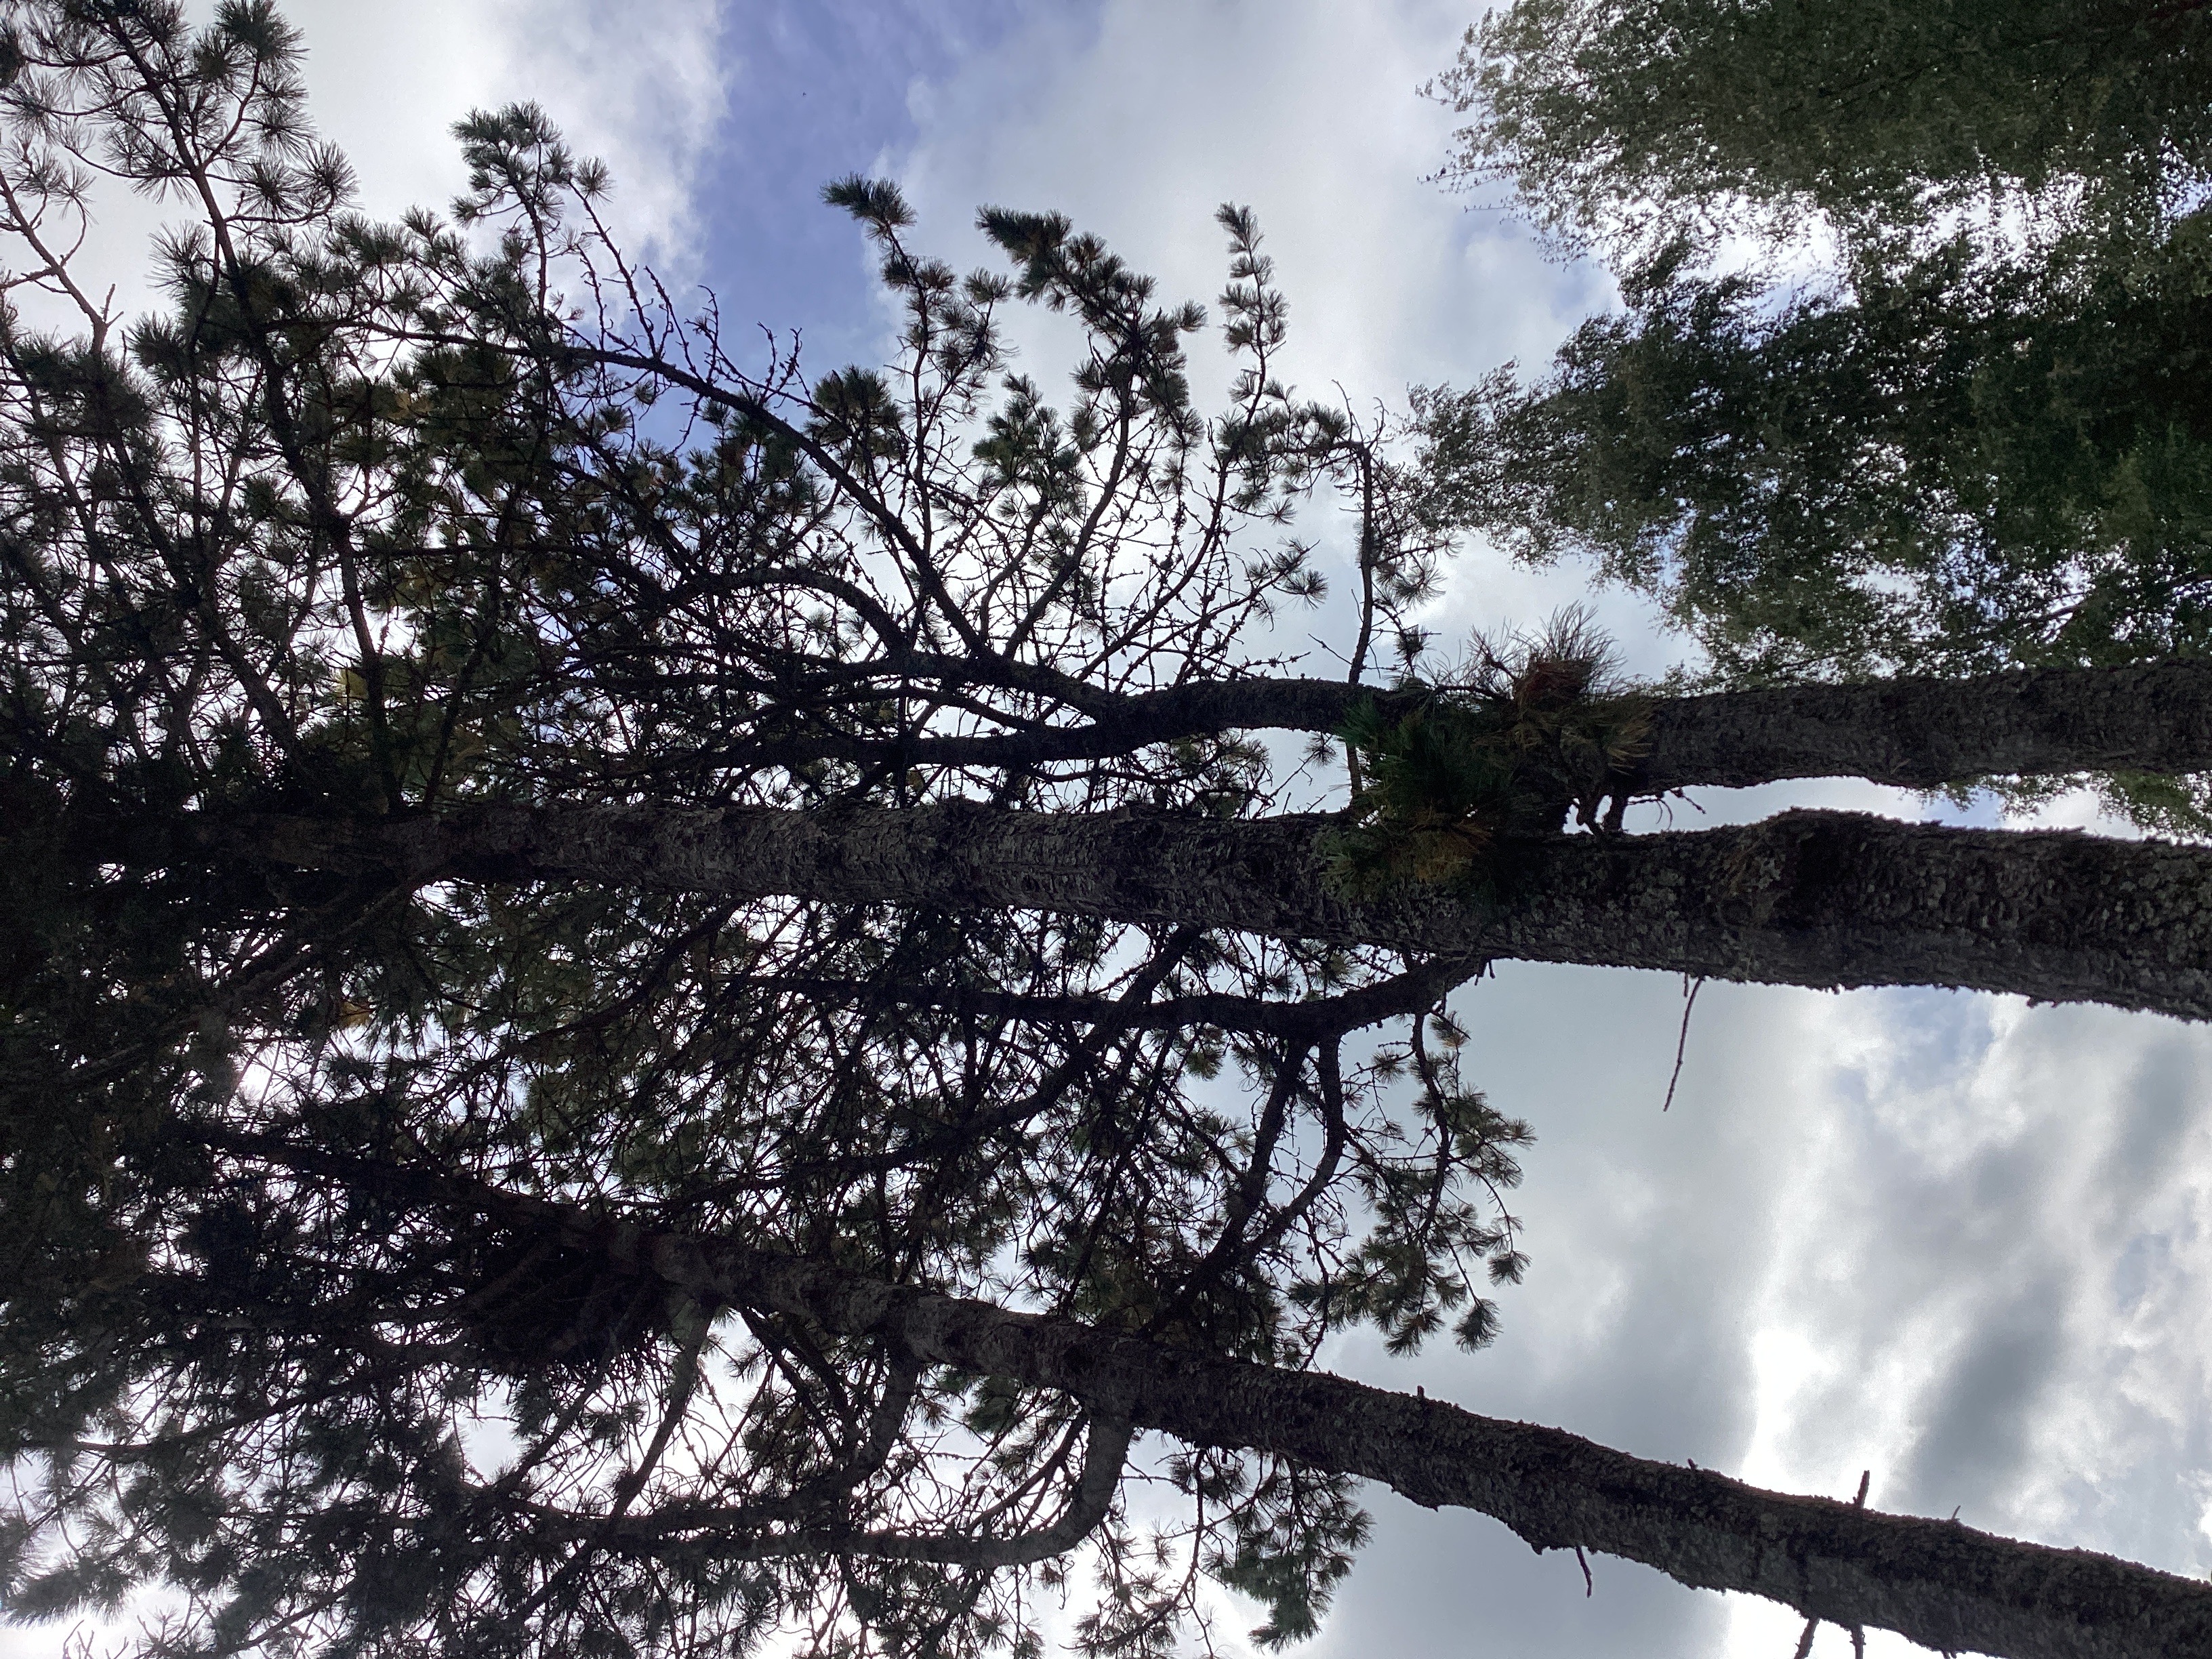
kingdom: Plantae
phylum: Tracheophyta
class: Pinopsida
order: Pinales
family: Pinaceae
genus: Pinus
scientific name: Pinus sibirica
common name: sibirsk sembrafuru
